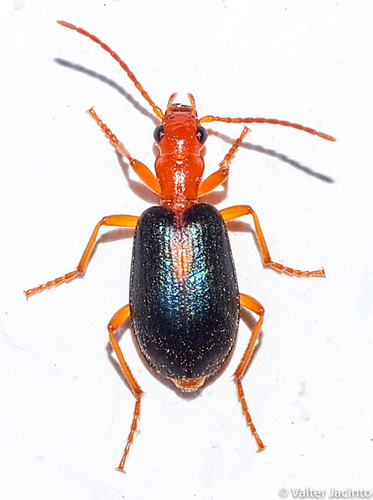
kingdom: Animalia
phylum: Arthropoda
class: Insecta
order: Coleoptera
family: Carabidae
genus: Brachinus
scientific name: Brachinus sclopeta
